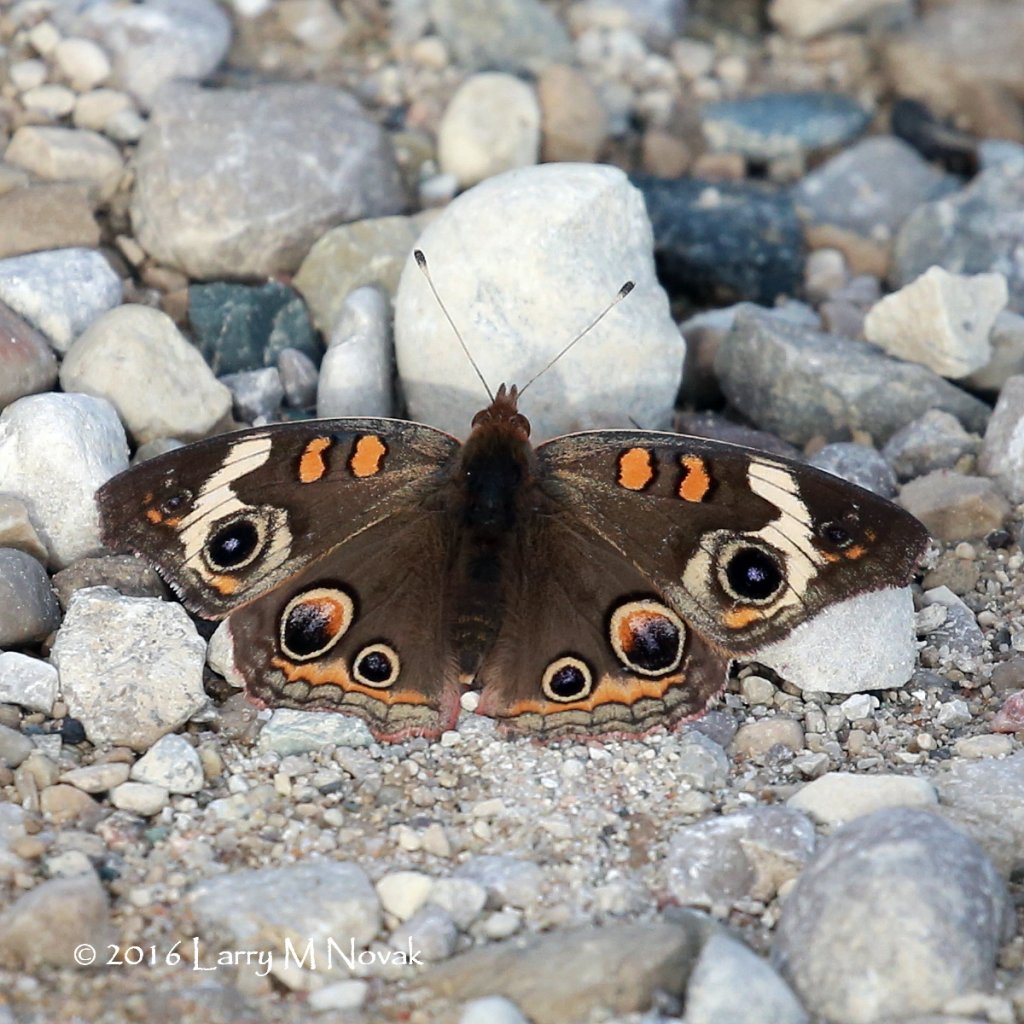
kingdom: Animalia
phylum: Arthropoda
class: Insecta
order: Lepidoptera
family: Nymphalidae
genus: Junonia
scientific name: Junonia coenia
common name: Common Buckeye
